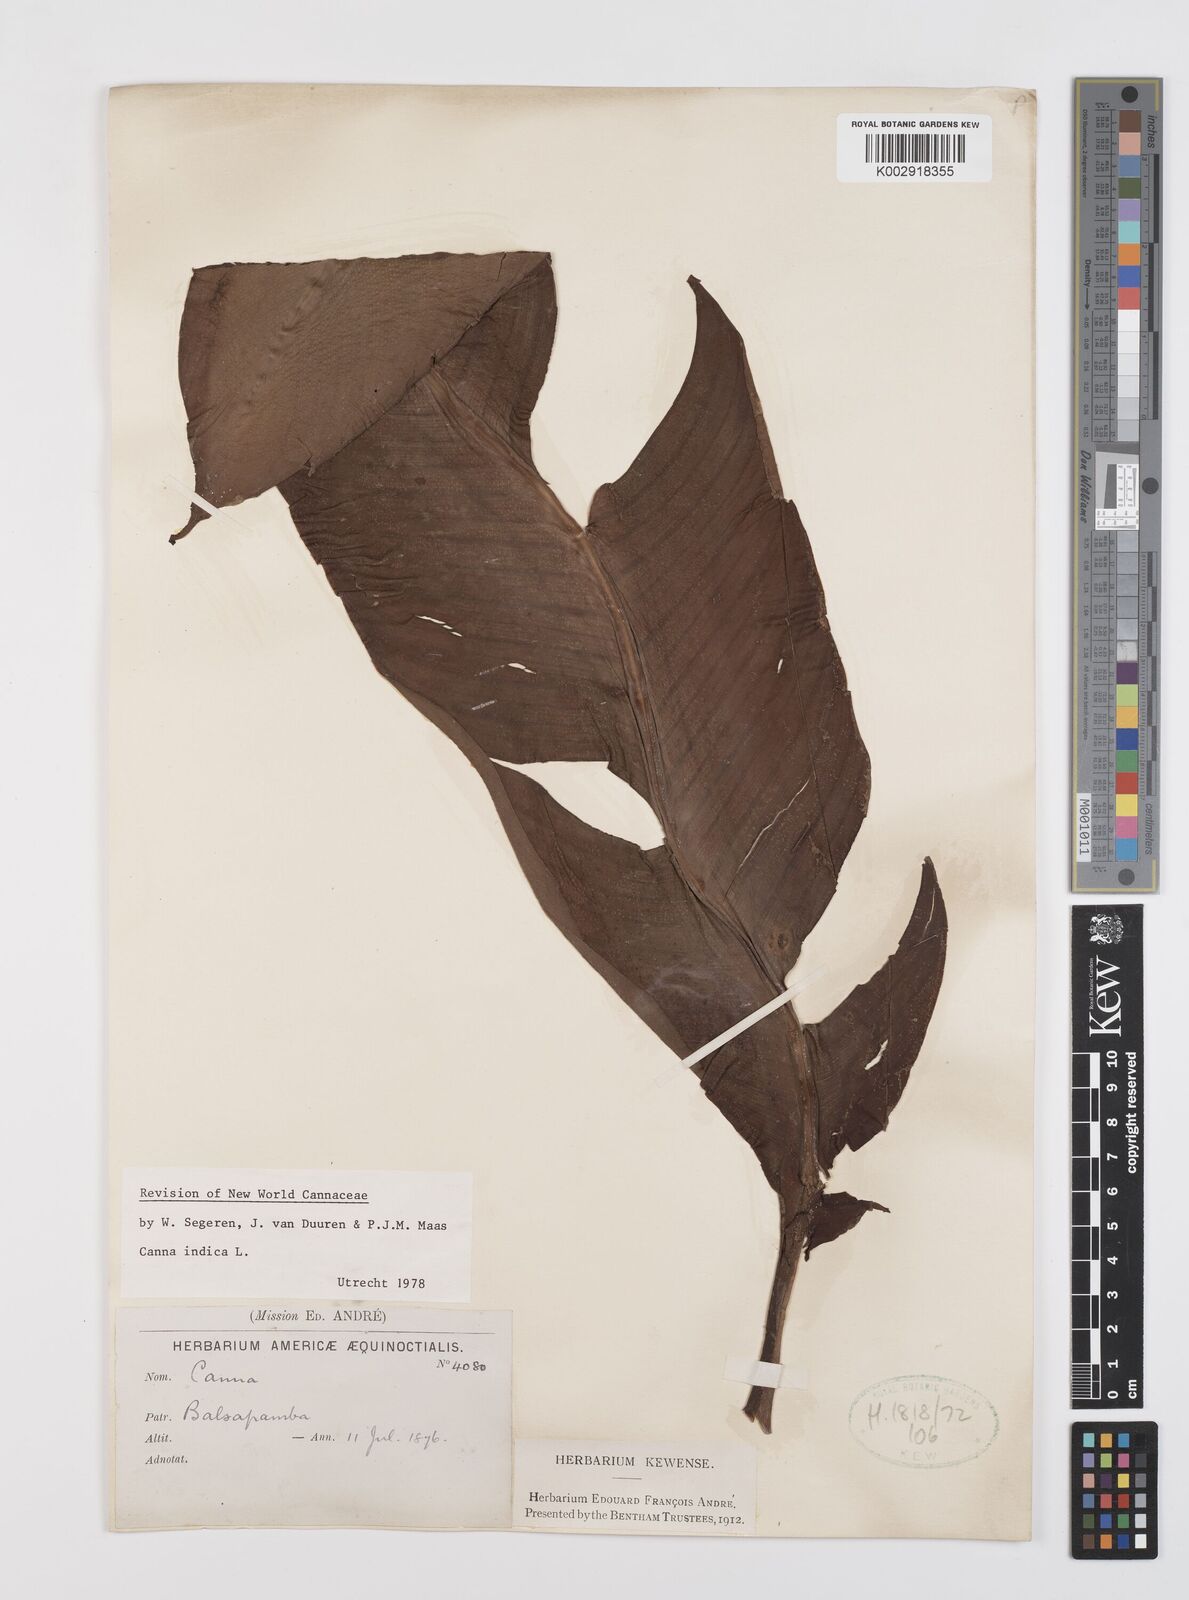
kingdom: Plantae
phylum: Tracheophyta
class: Liliopsida
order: Zingiberales
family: Cannaceae
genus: Canna
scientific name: Canna indica
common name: Indian shot
